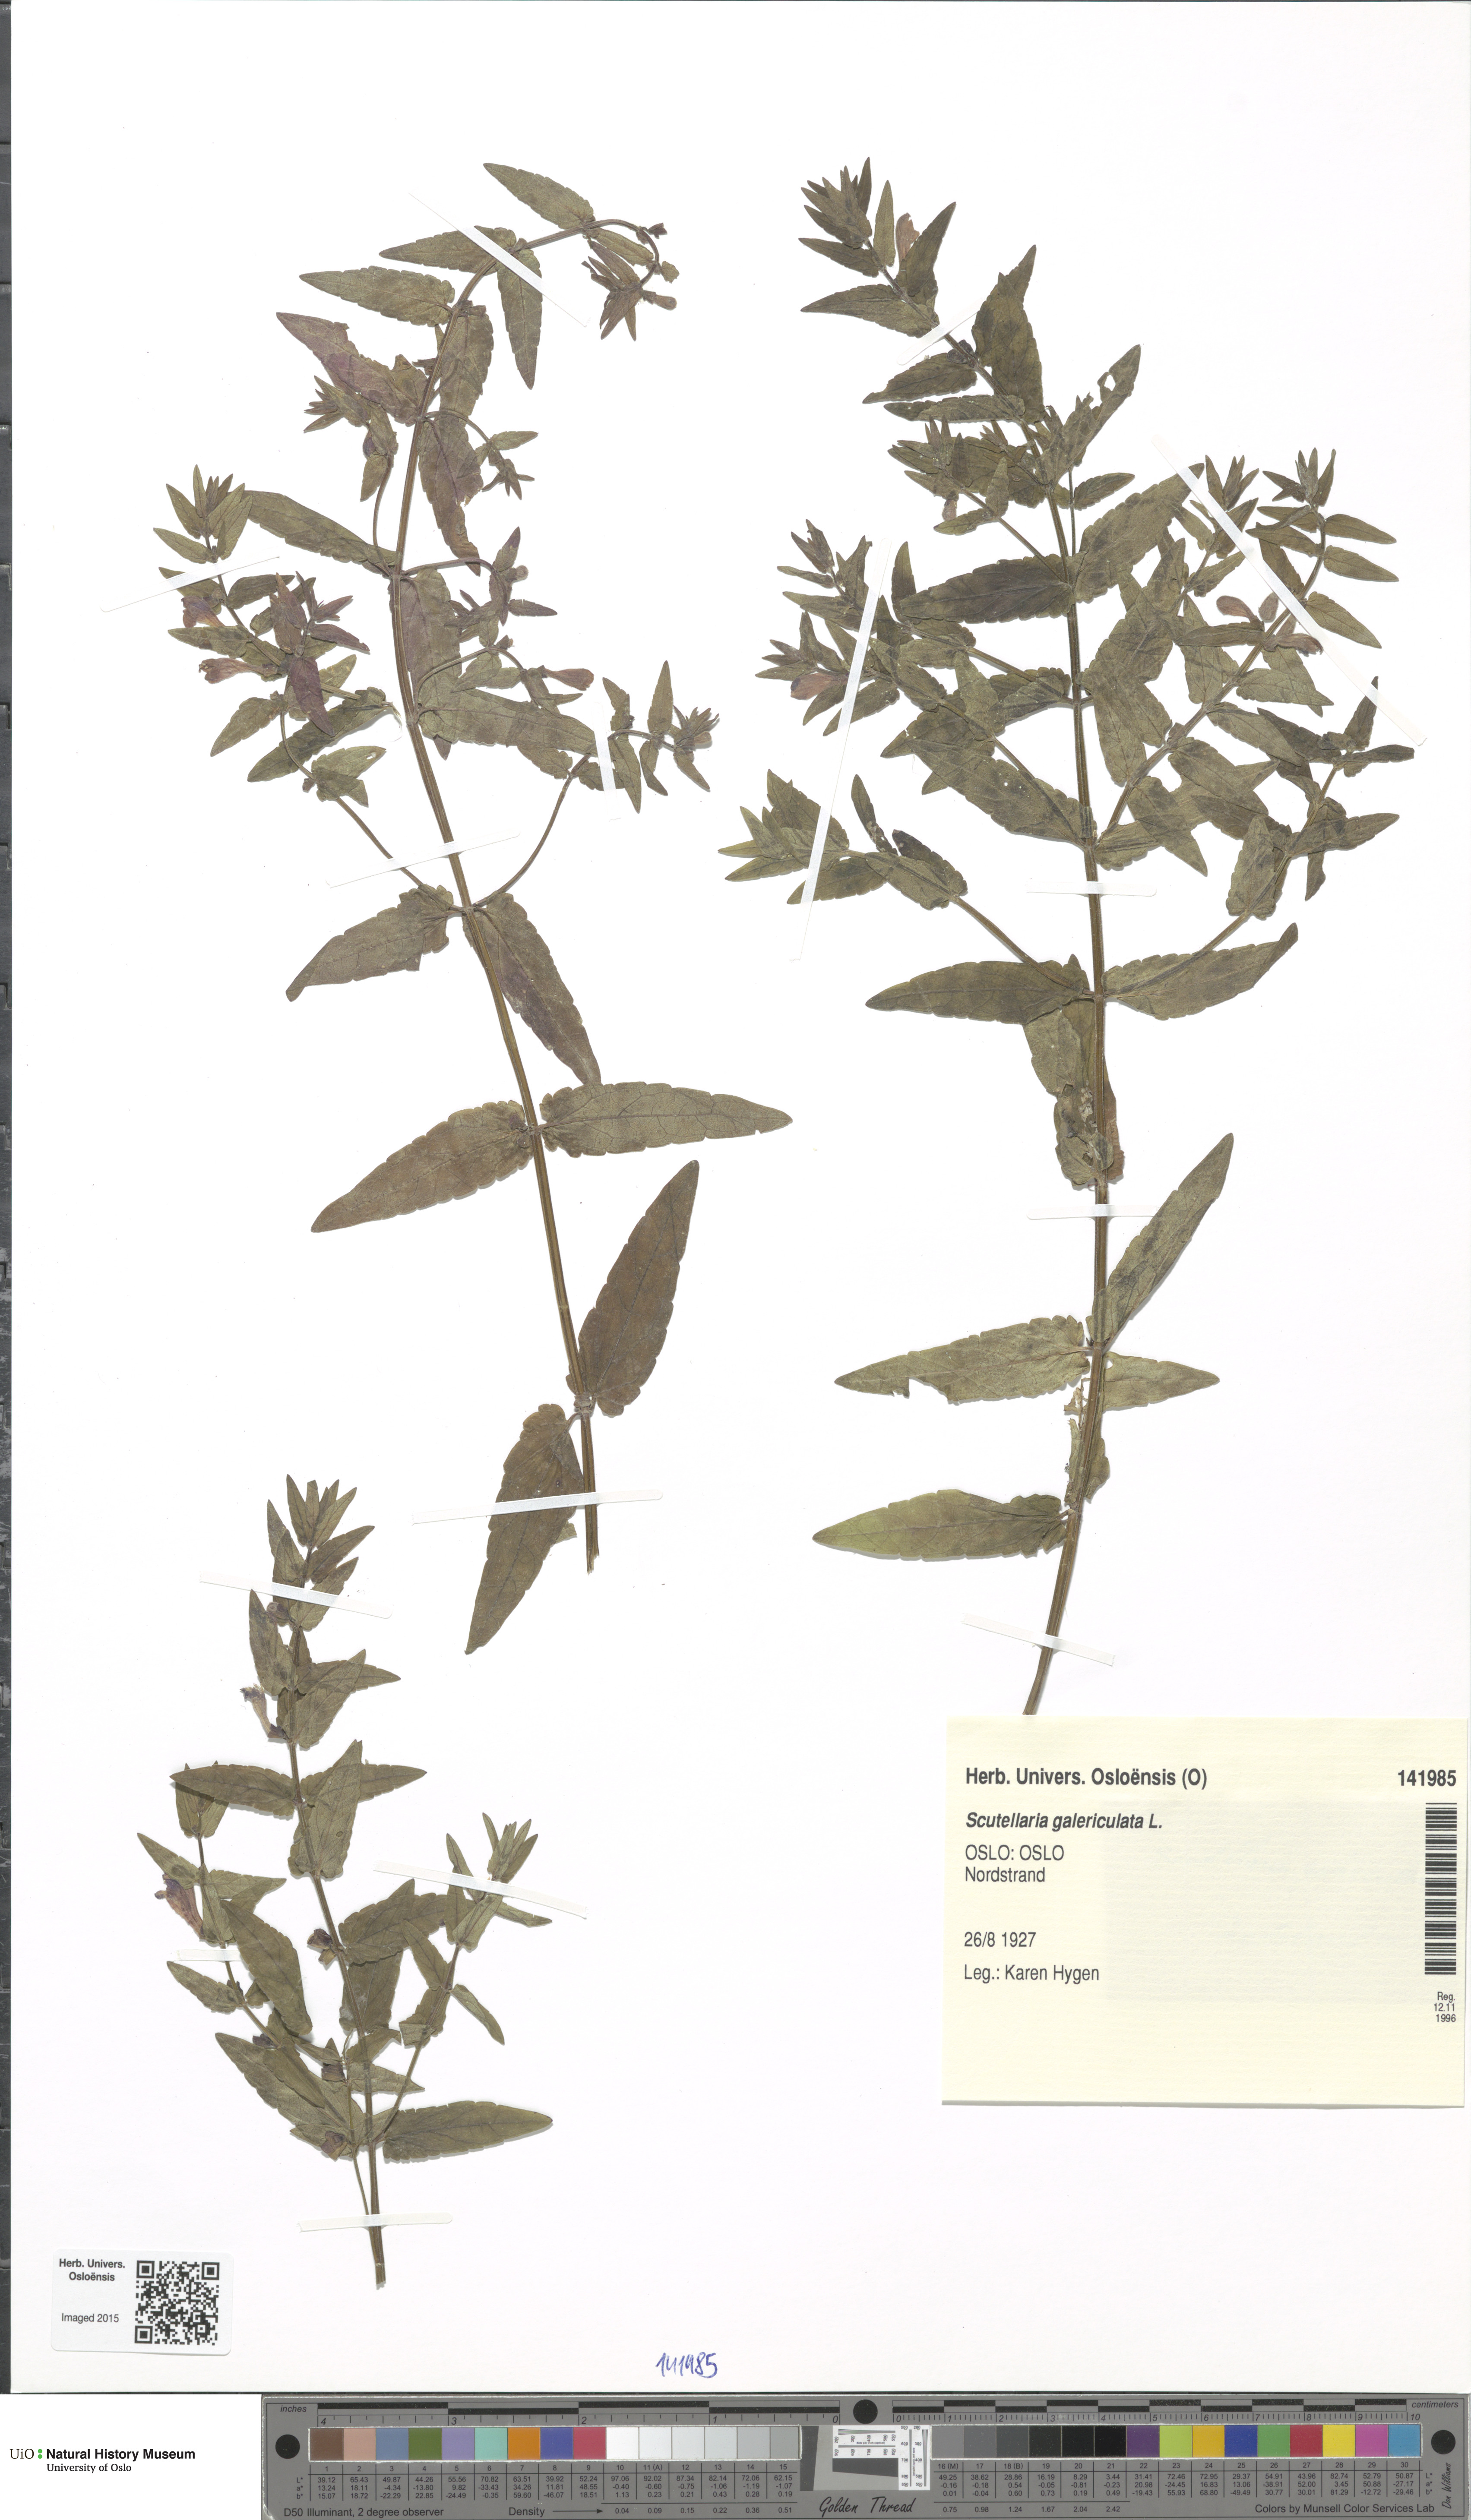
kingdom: Plantae
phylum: Tracheophyta
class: Magnoliopsida
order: Lamiales
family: Lamiaceae
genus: Scutellaria
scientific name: Scutellaria galericulata
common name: Skullcap
